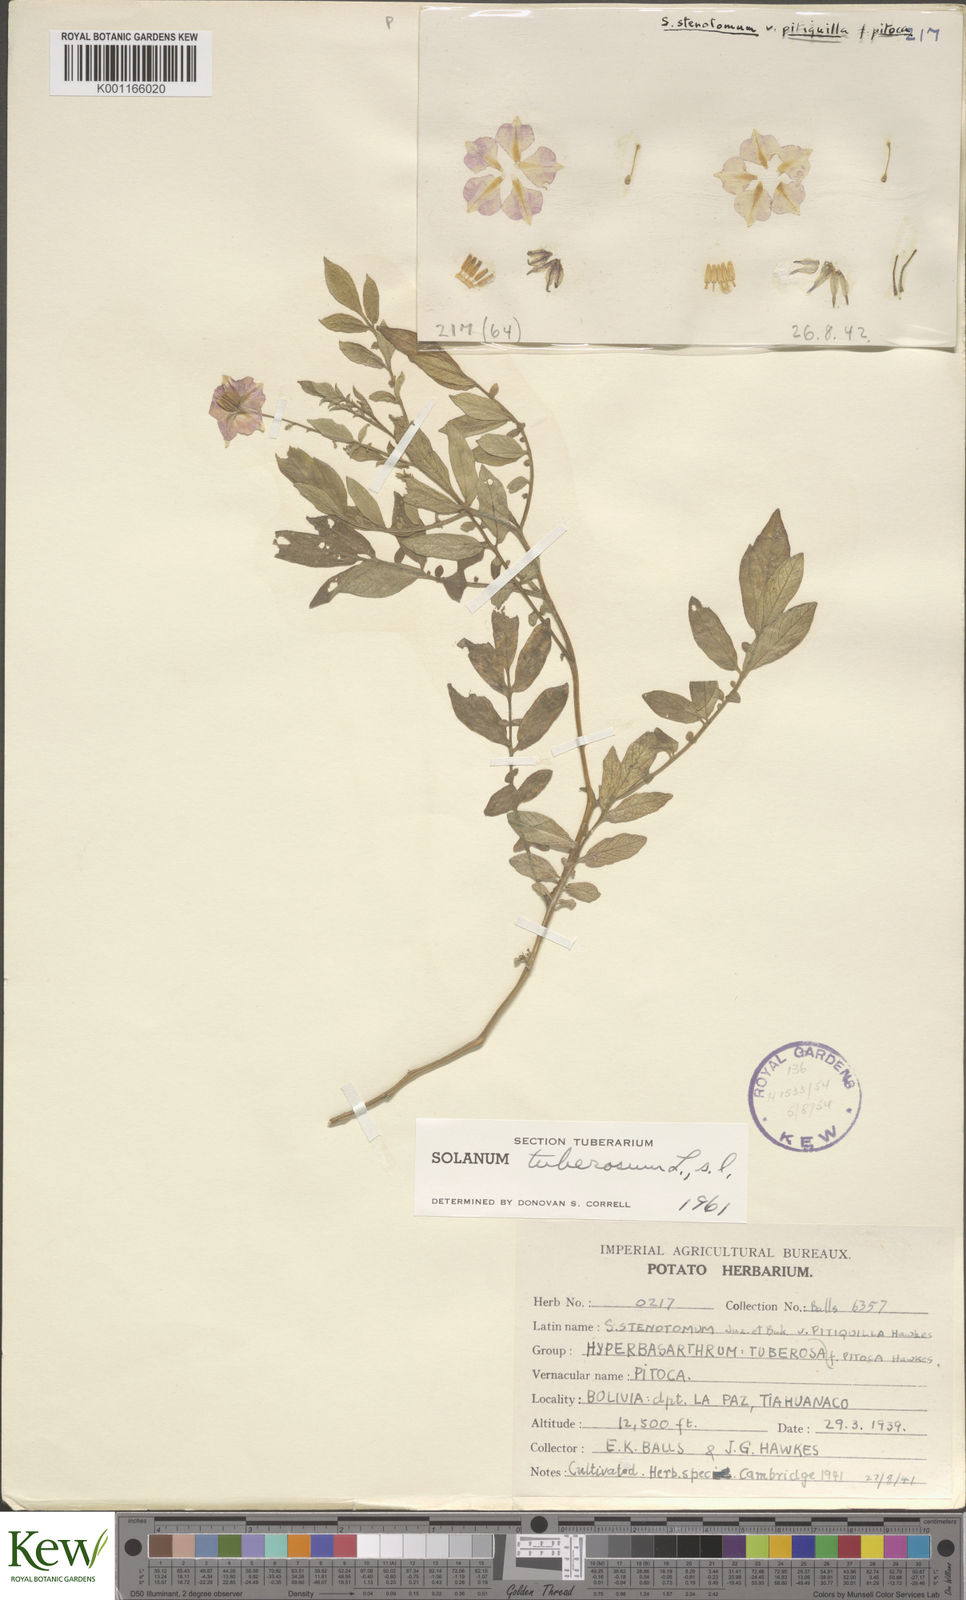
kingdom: Plantae
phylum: Tracheophyta
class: Magnoliopsida
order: Solanales
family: Solanaceae
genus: Solanum
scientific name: Solanum tuberosum
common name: Potato
